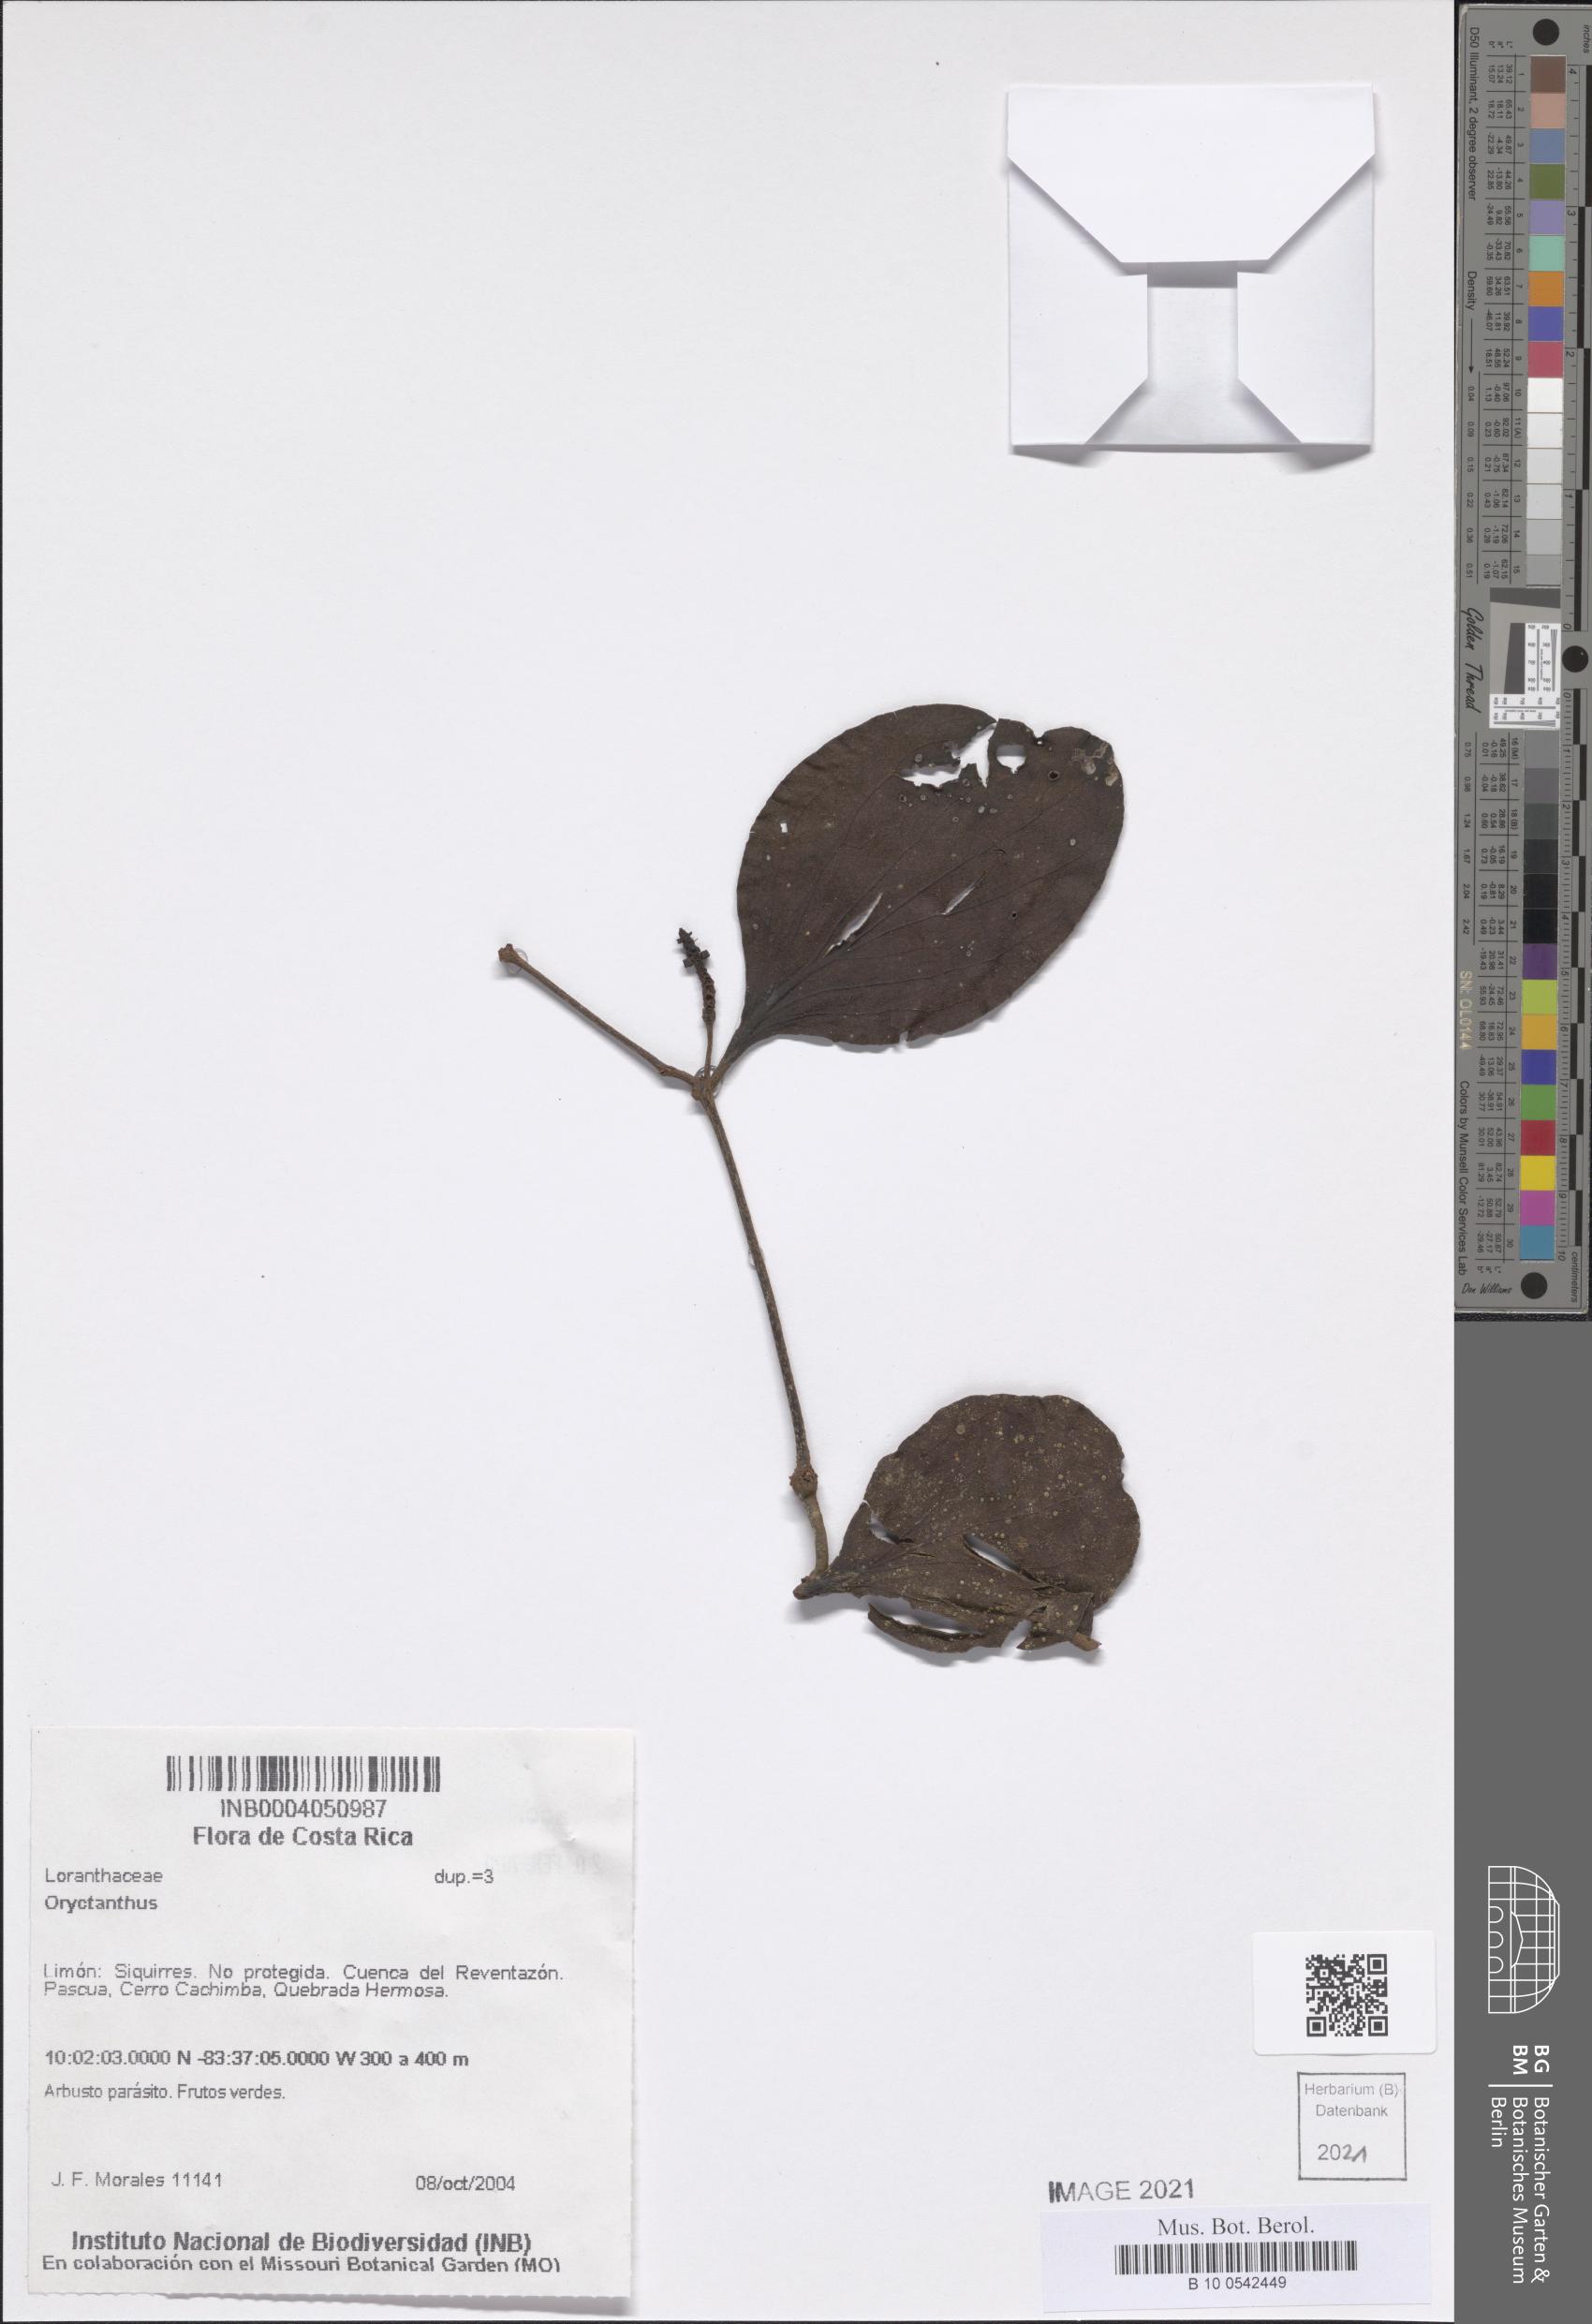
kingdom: Plantae
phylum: Tracheophyta
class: Magnoliopsida
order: Santalales
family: Loranthaceae
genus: Oryctanthus
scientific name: Oryctanthus
